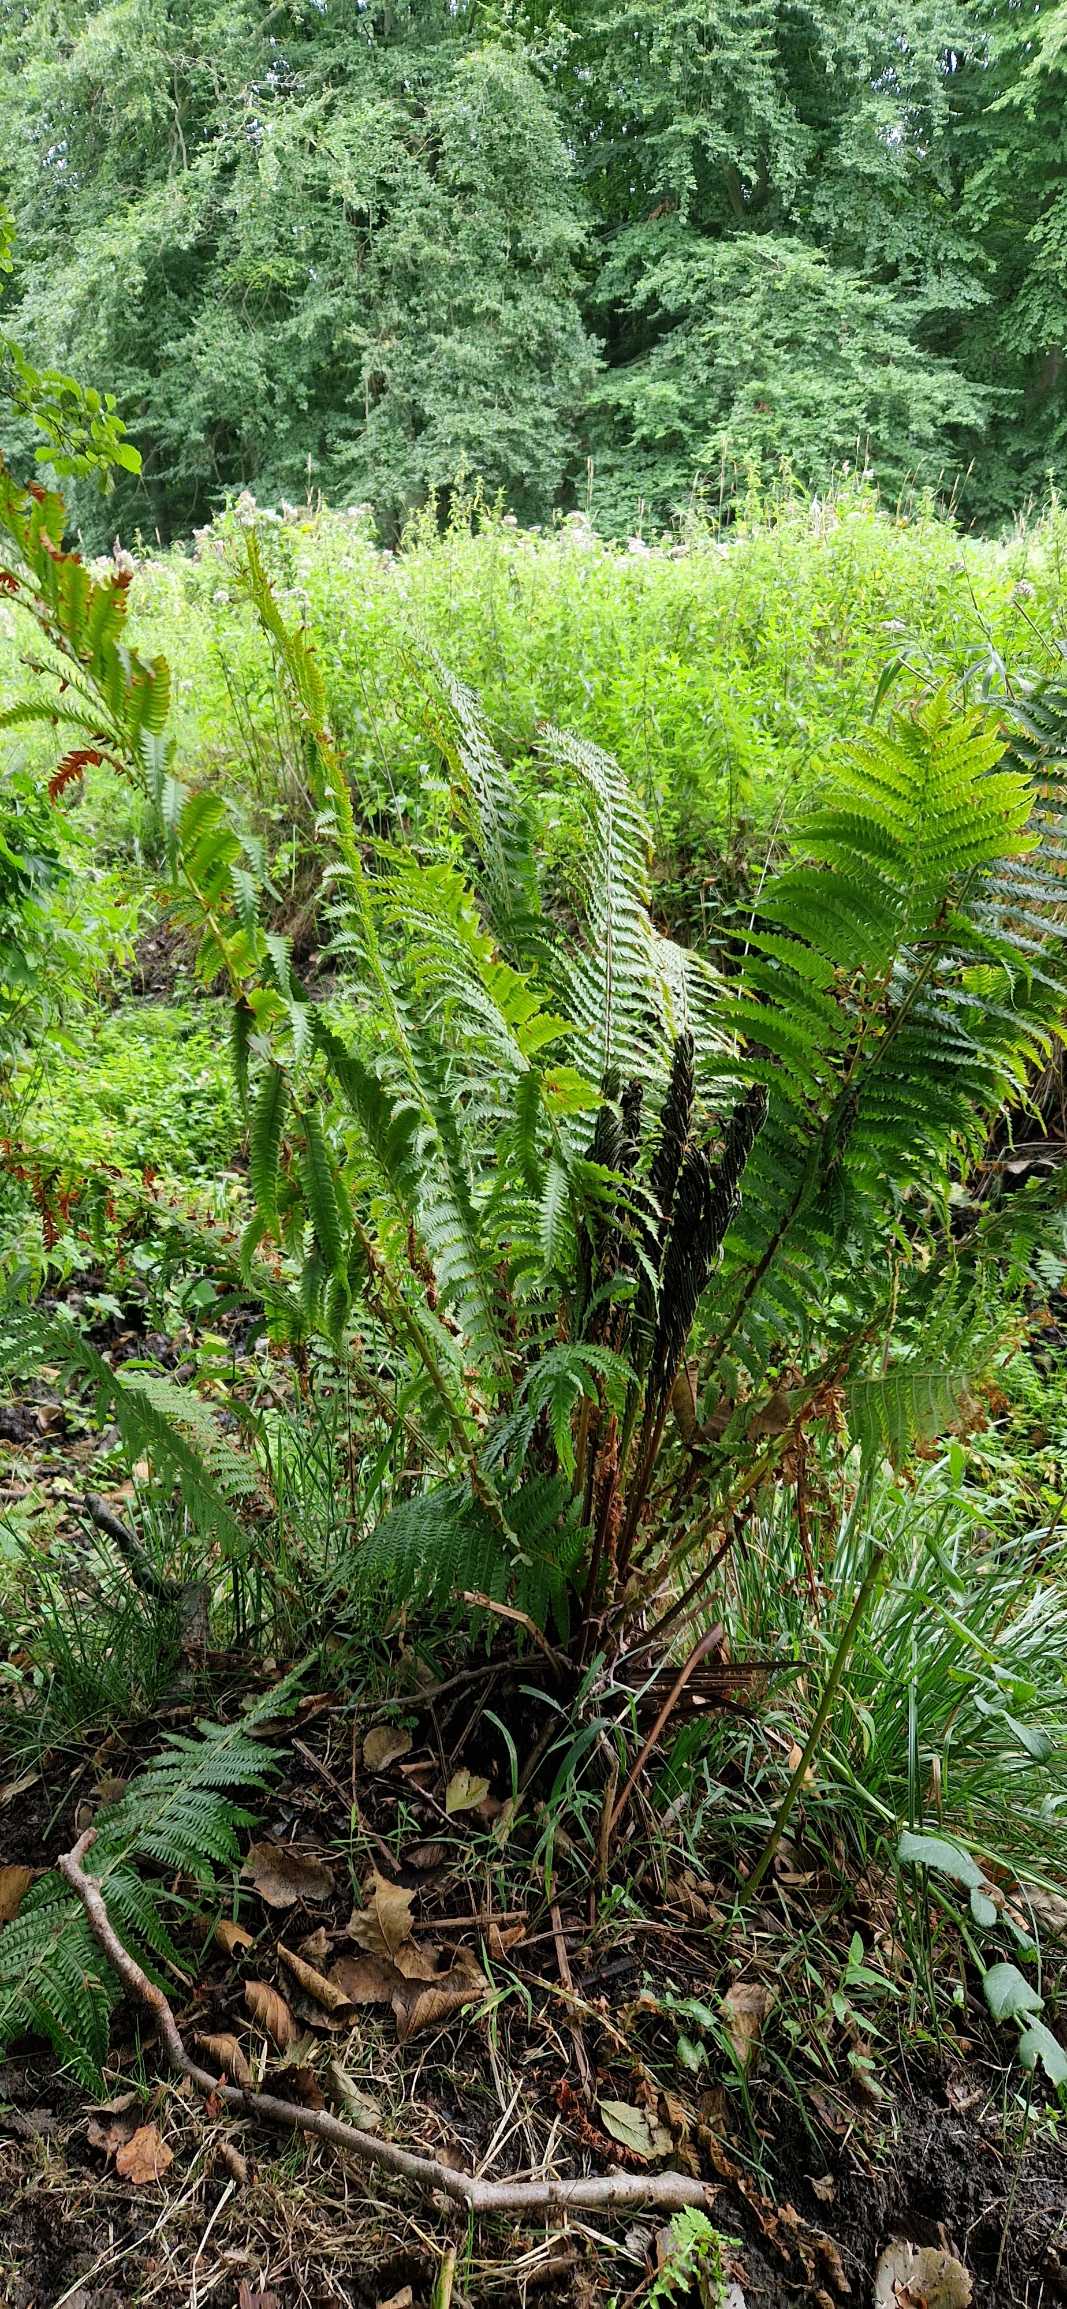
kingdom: Plantae
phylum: Tracheophyta
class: Polypodiopsida
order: Polypodiales
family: Onocleaceae
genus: Matteuccia
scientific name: Matteuccia struthiopteris
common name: Strudsvinge
